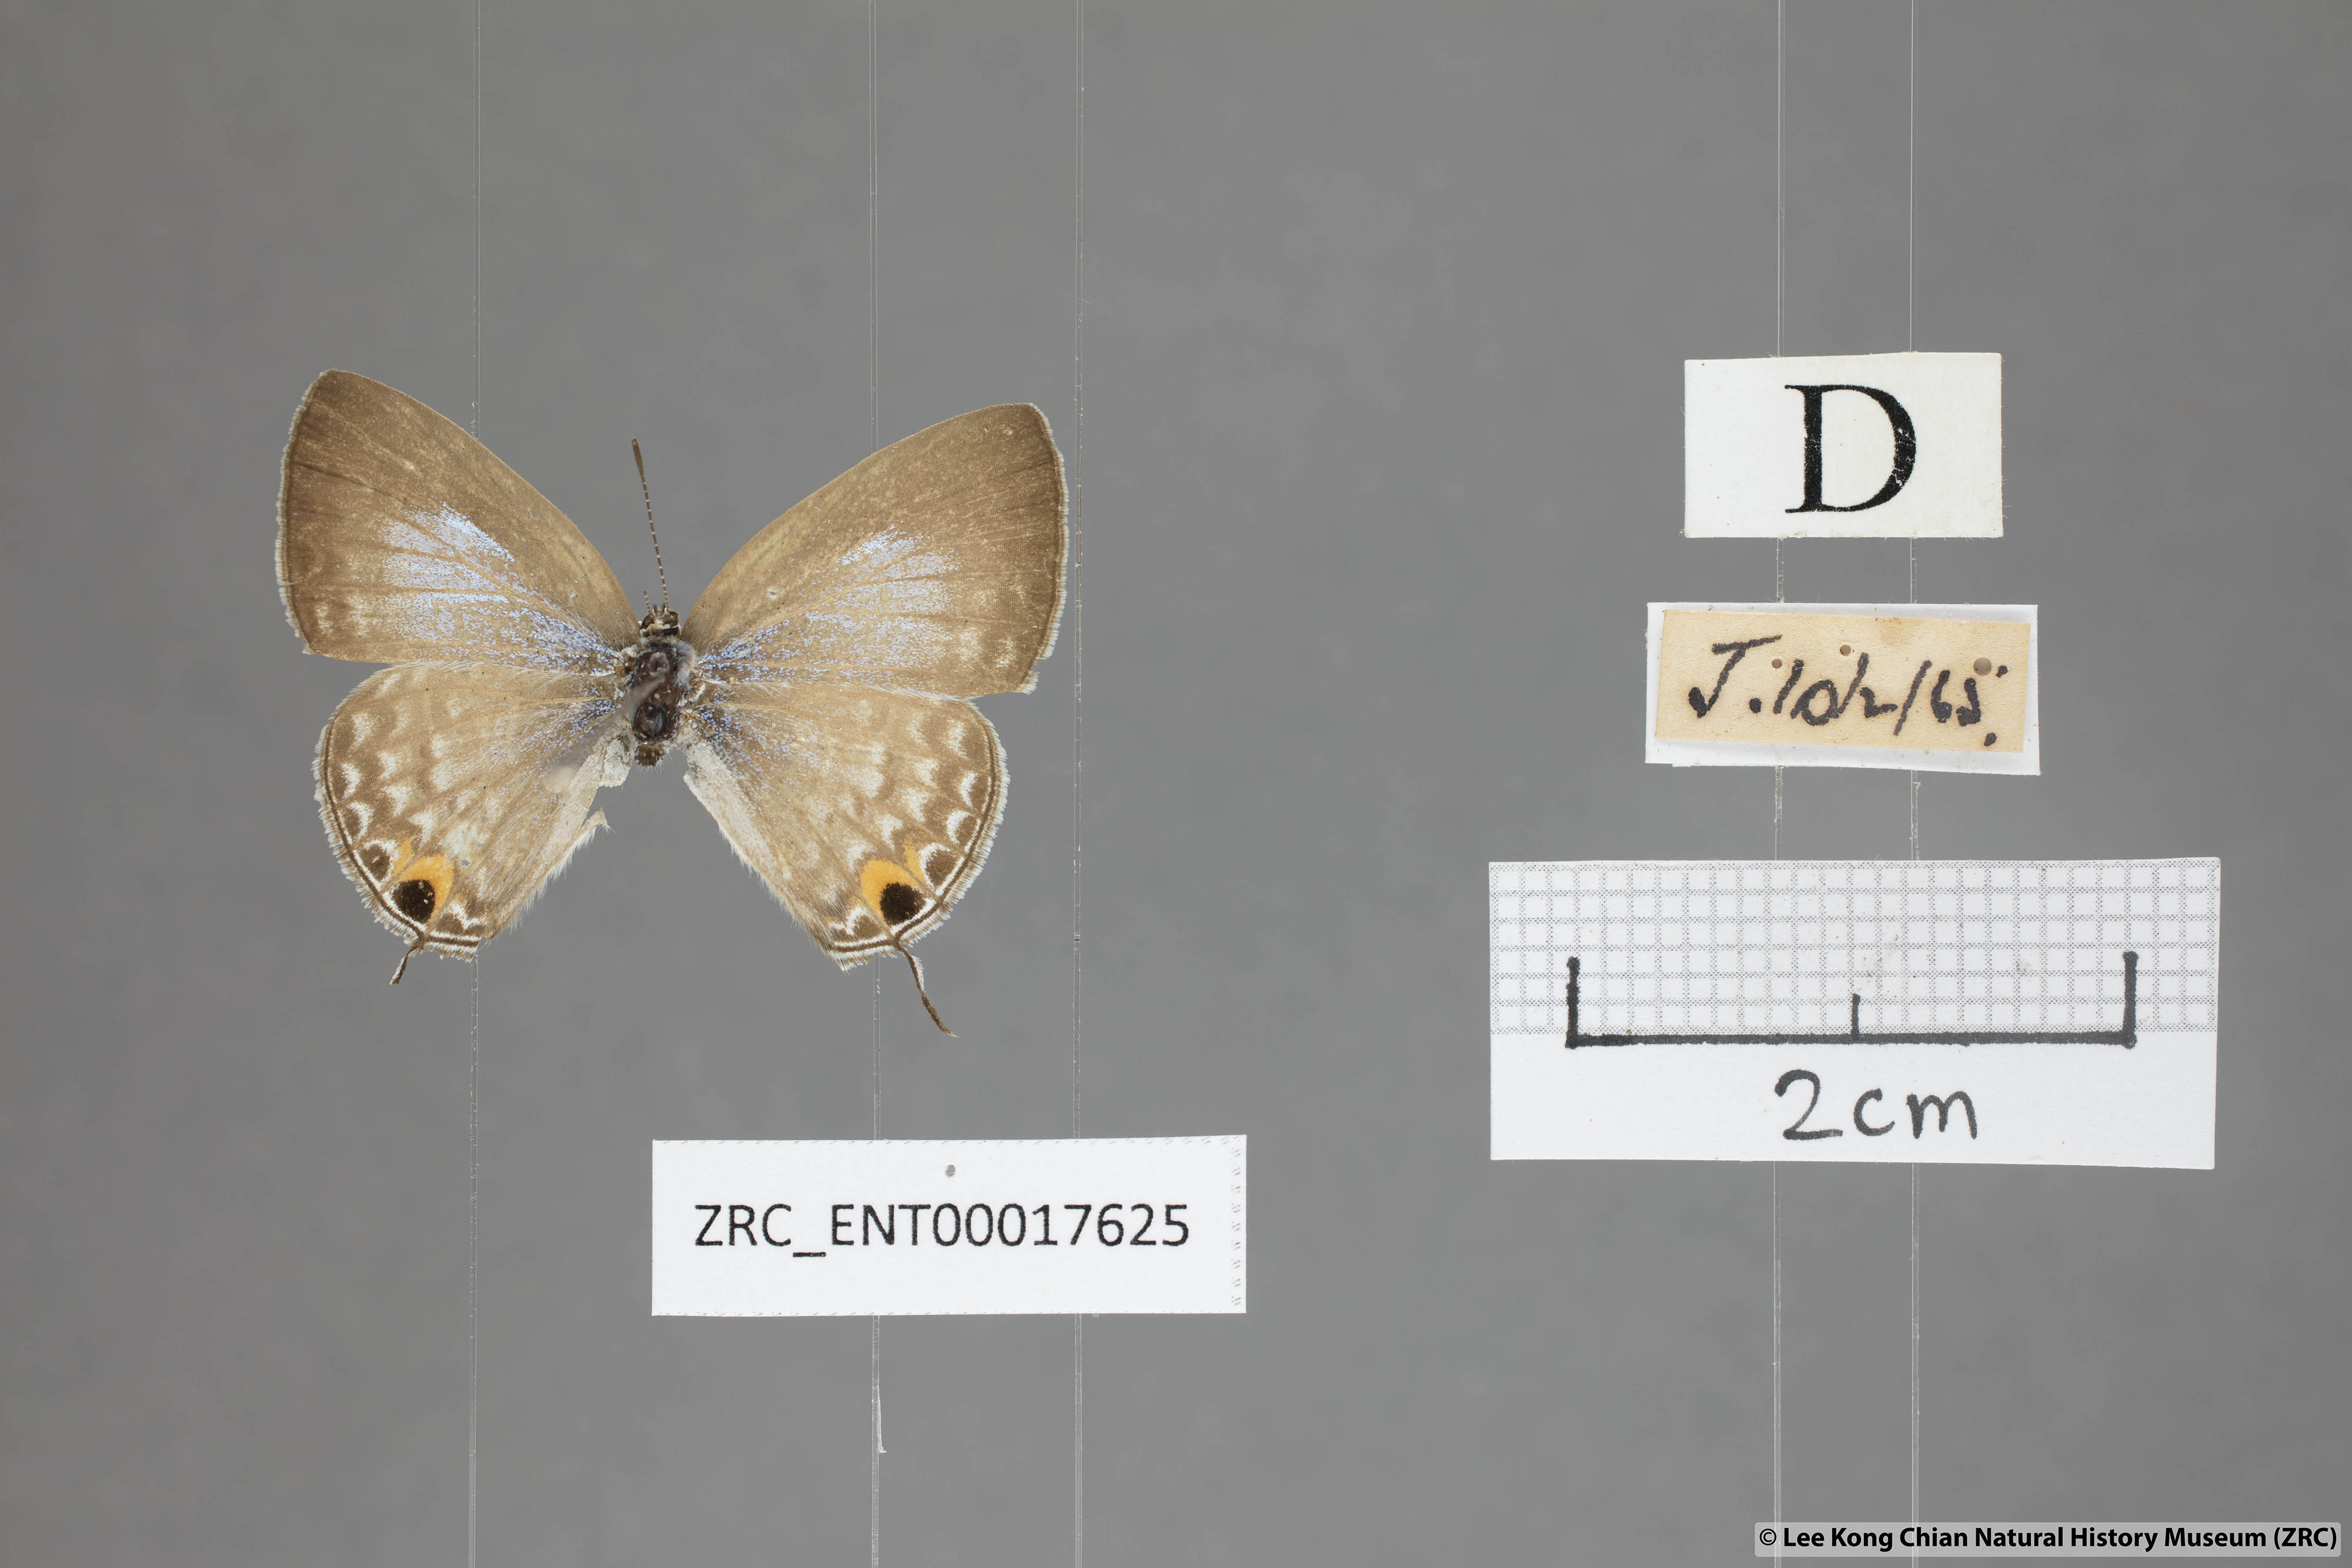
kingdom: Animalia
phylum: Arthropoda
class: Insecta
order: Lepidoptera
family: Lycaenidae
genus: Catochrysops
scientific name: Catochrysops panormus
